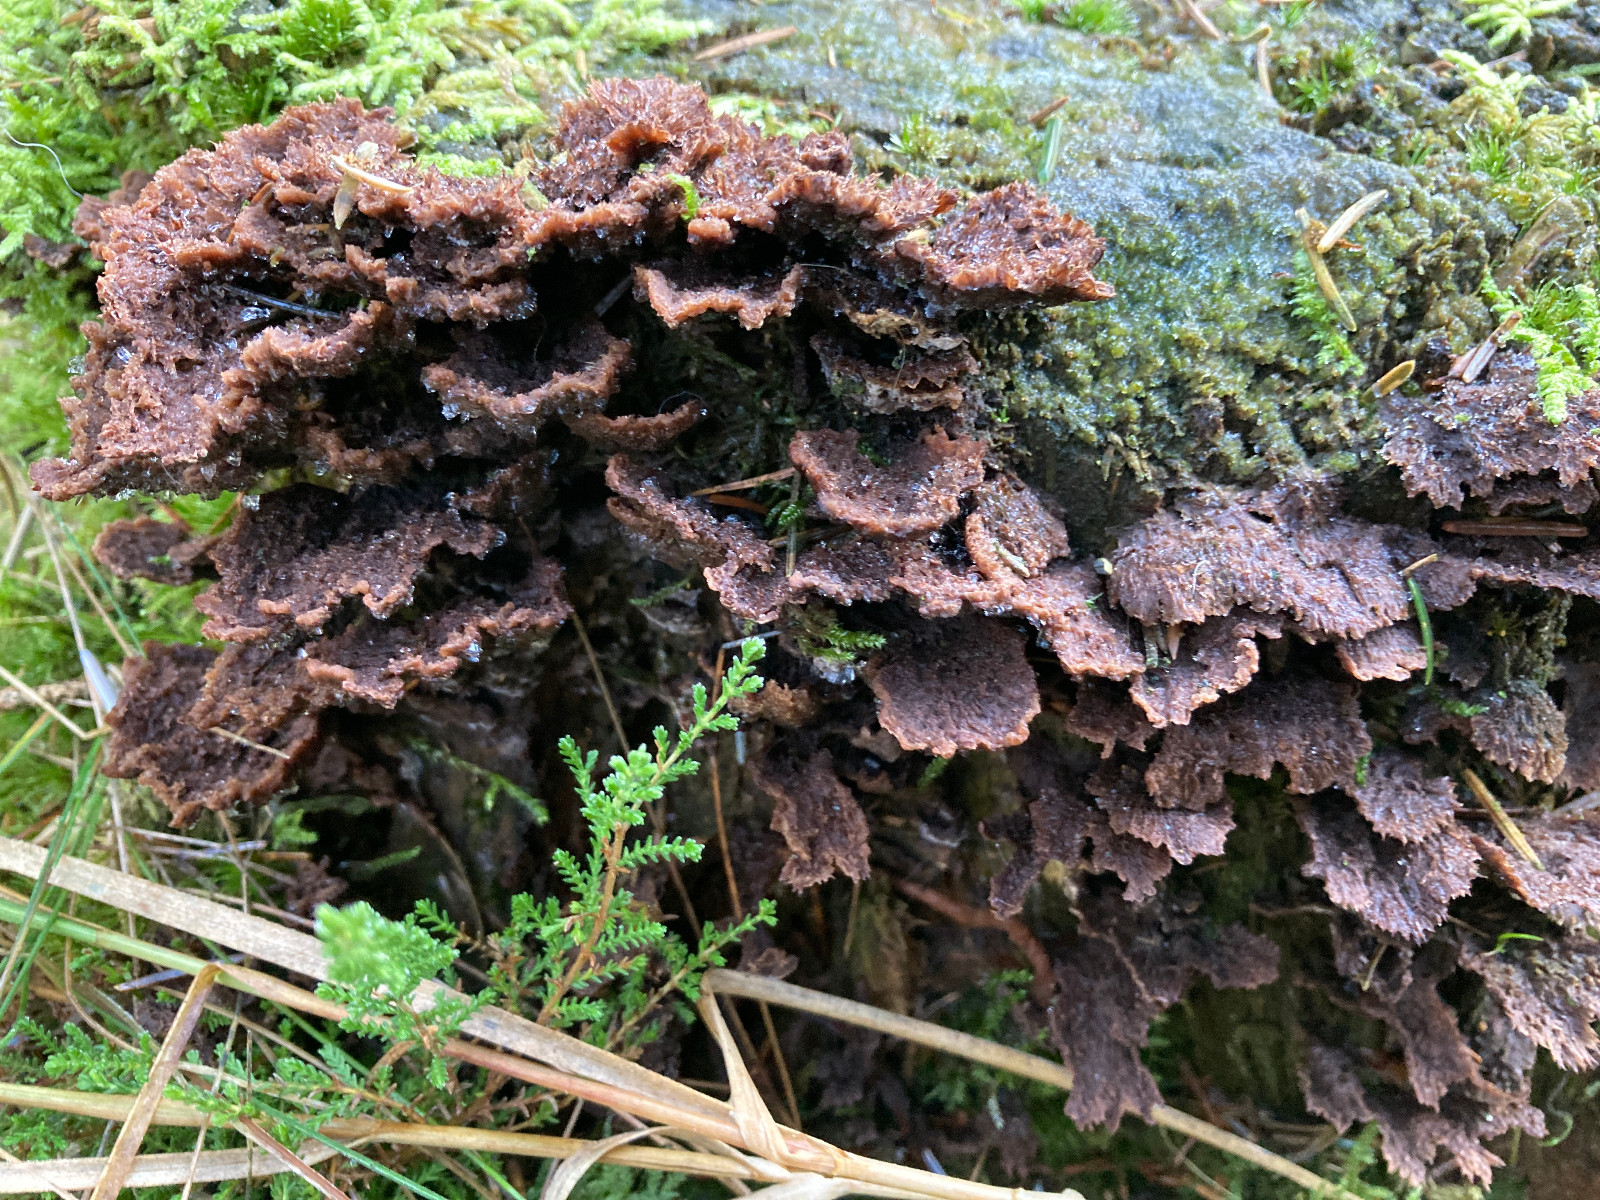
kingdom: Fungi
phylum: Basidiomycota
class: Agaricomycetes
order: Thelephorales
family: Thelephoraceae
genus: Thelephora
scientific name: Thelephora terrestris
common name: fliget frynsesvamp
